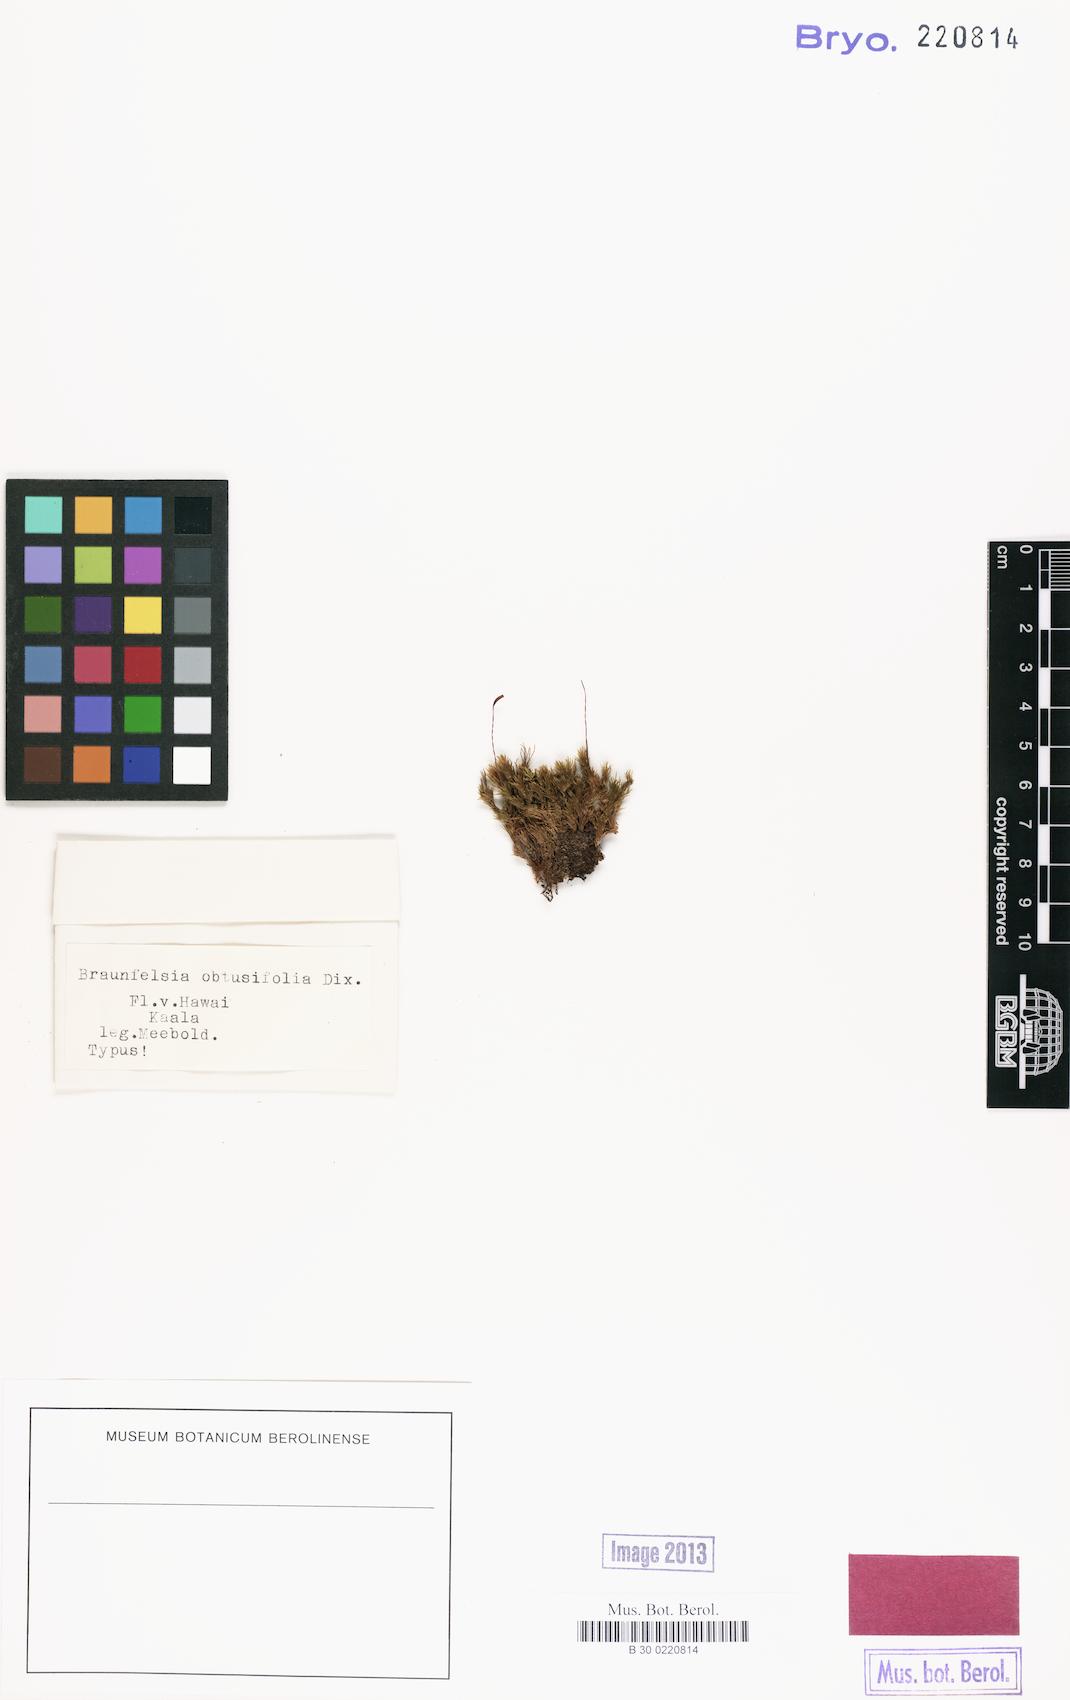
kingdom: Plantae
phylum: Bryophyta
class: Bryopsida
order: Dicranales
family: Dicranaceae
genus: Braunfelsia
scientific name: Braunfelsia
